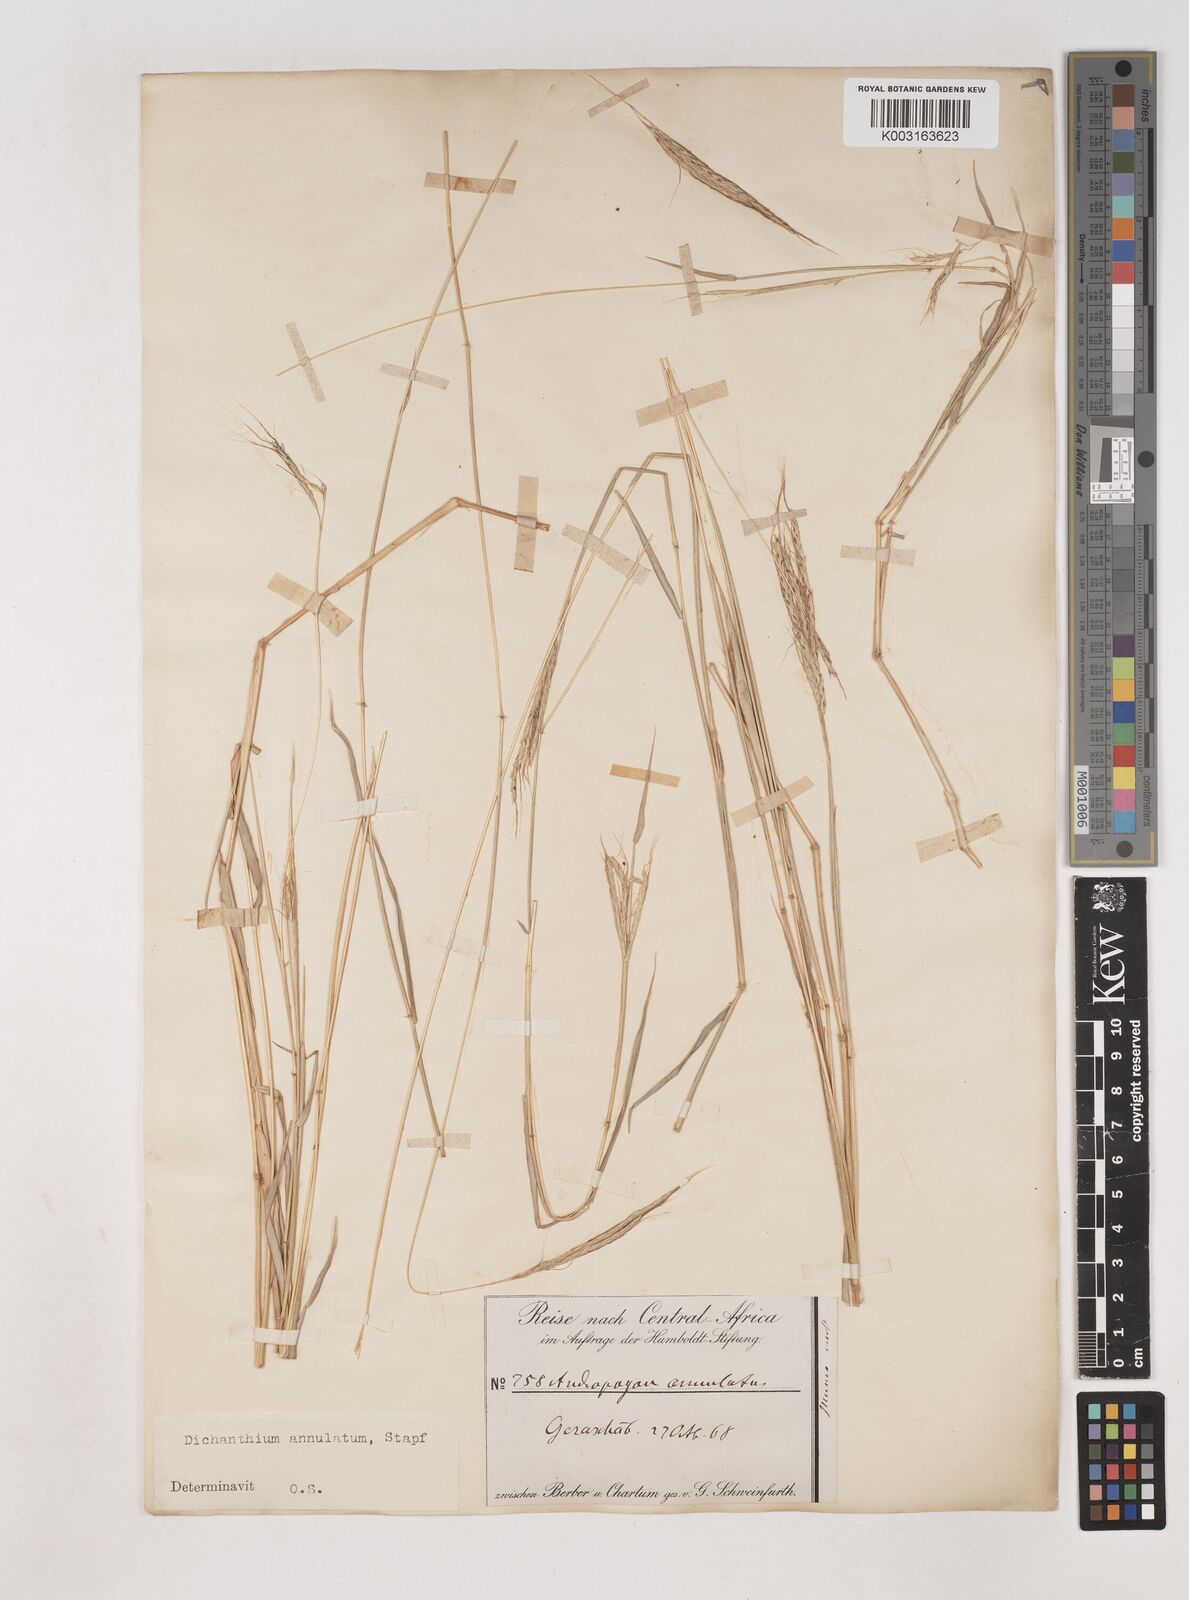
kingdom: Plantae
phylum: Tracheophyta
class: Liliopsida
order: Poales
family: Poaceae
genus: Dichanthium
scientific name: Dichanthium annulatum
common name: Kleberg's bluestem
